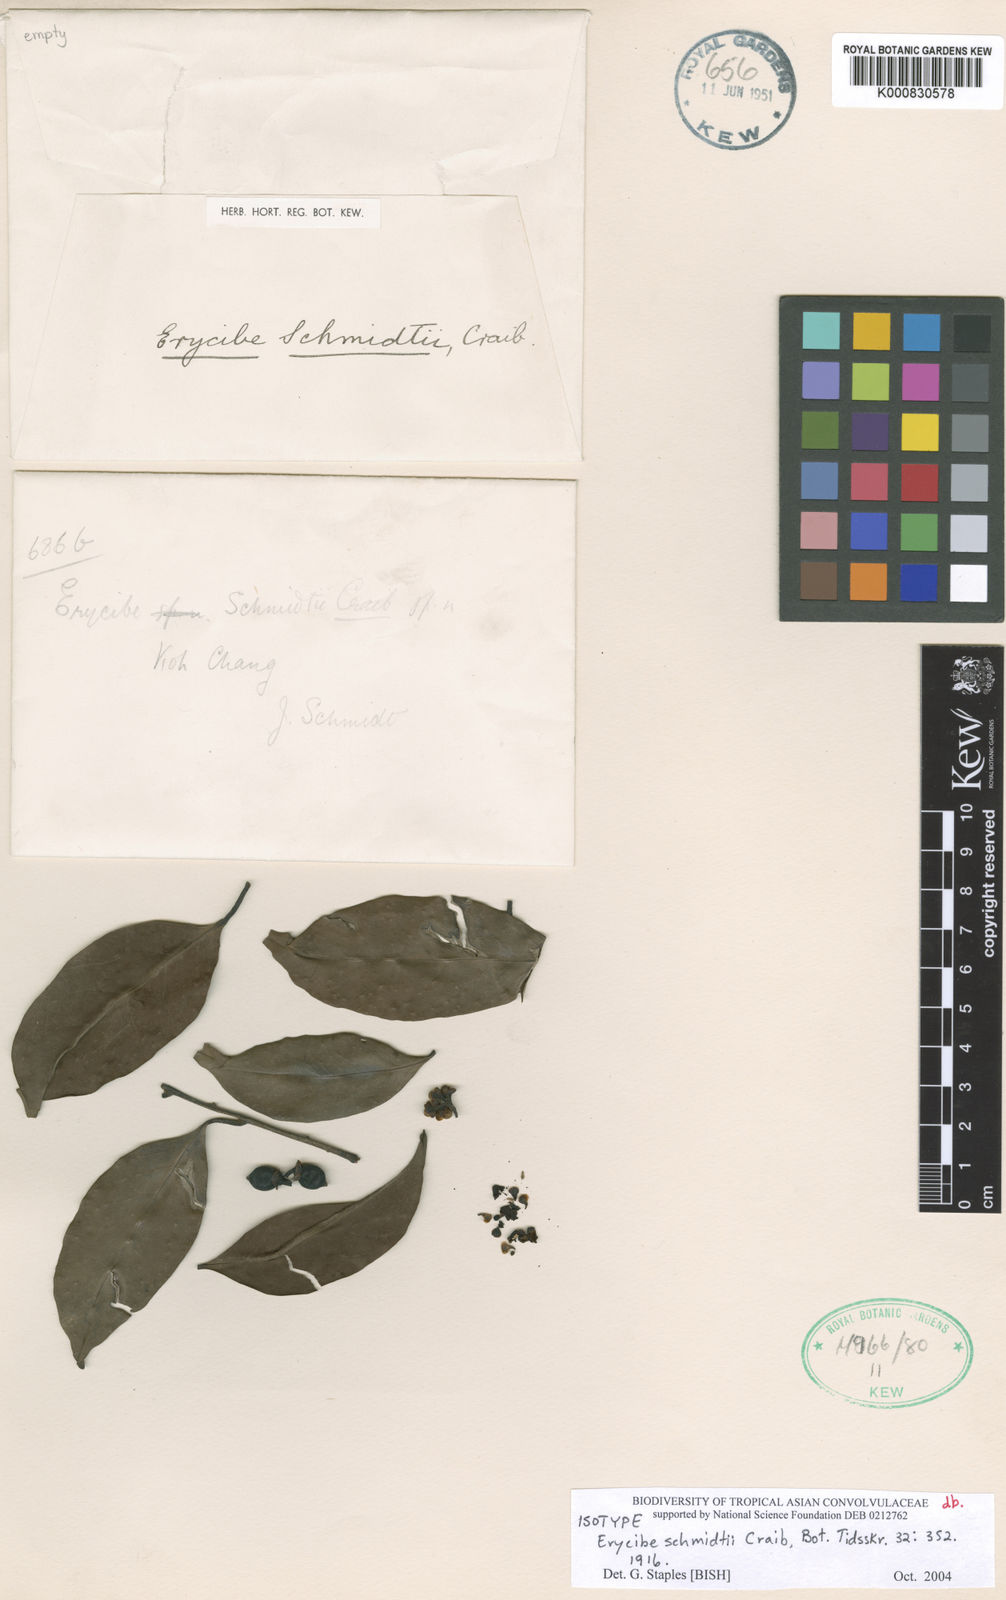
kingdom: Plantae
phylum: Tracheophyta
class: Magnoliopsida
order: Solanales
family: Convolvulaceae
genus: Erycibe
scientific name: Erycibe schmidtii
